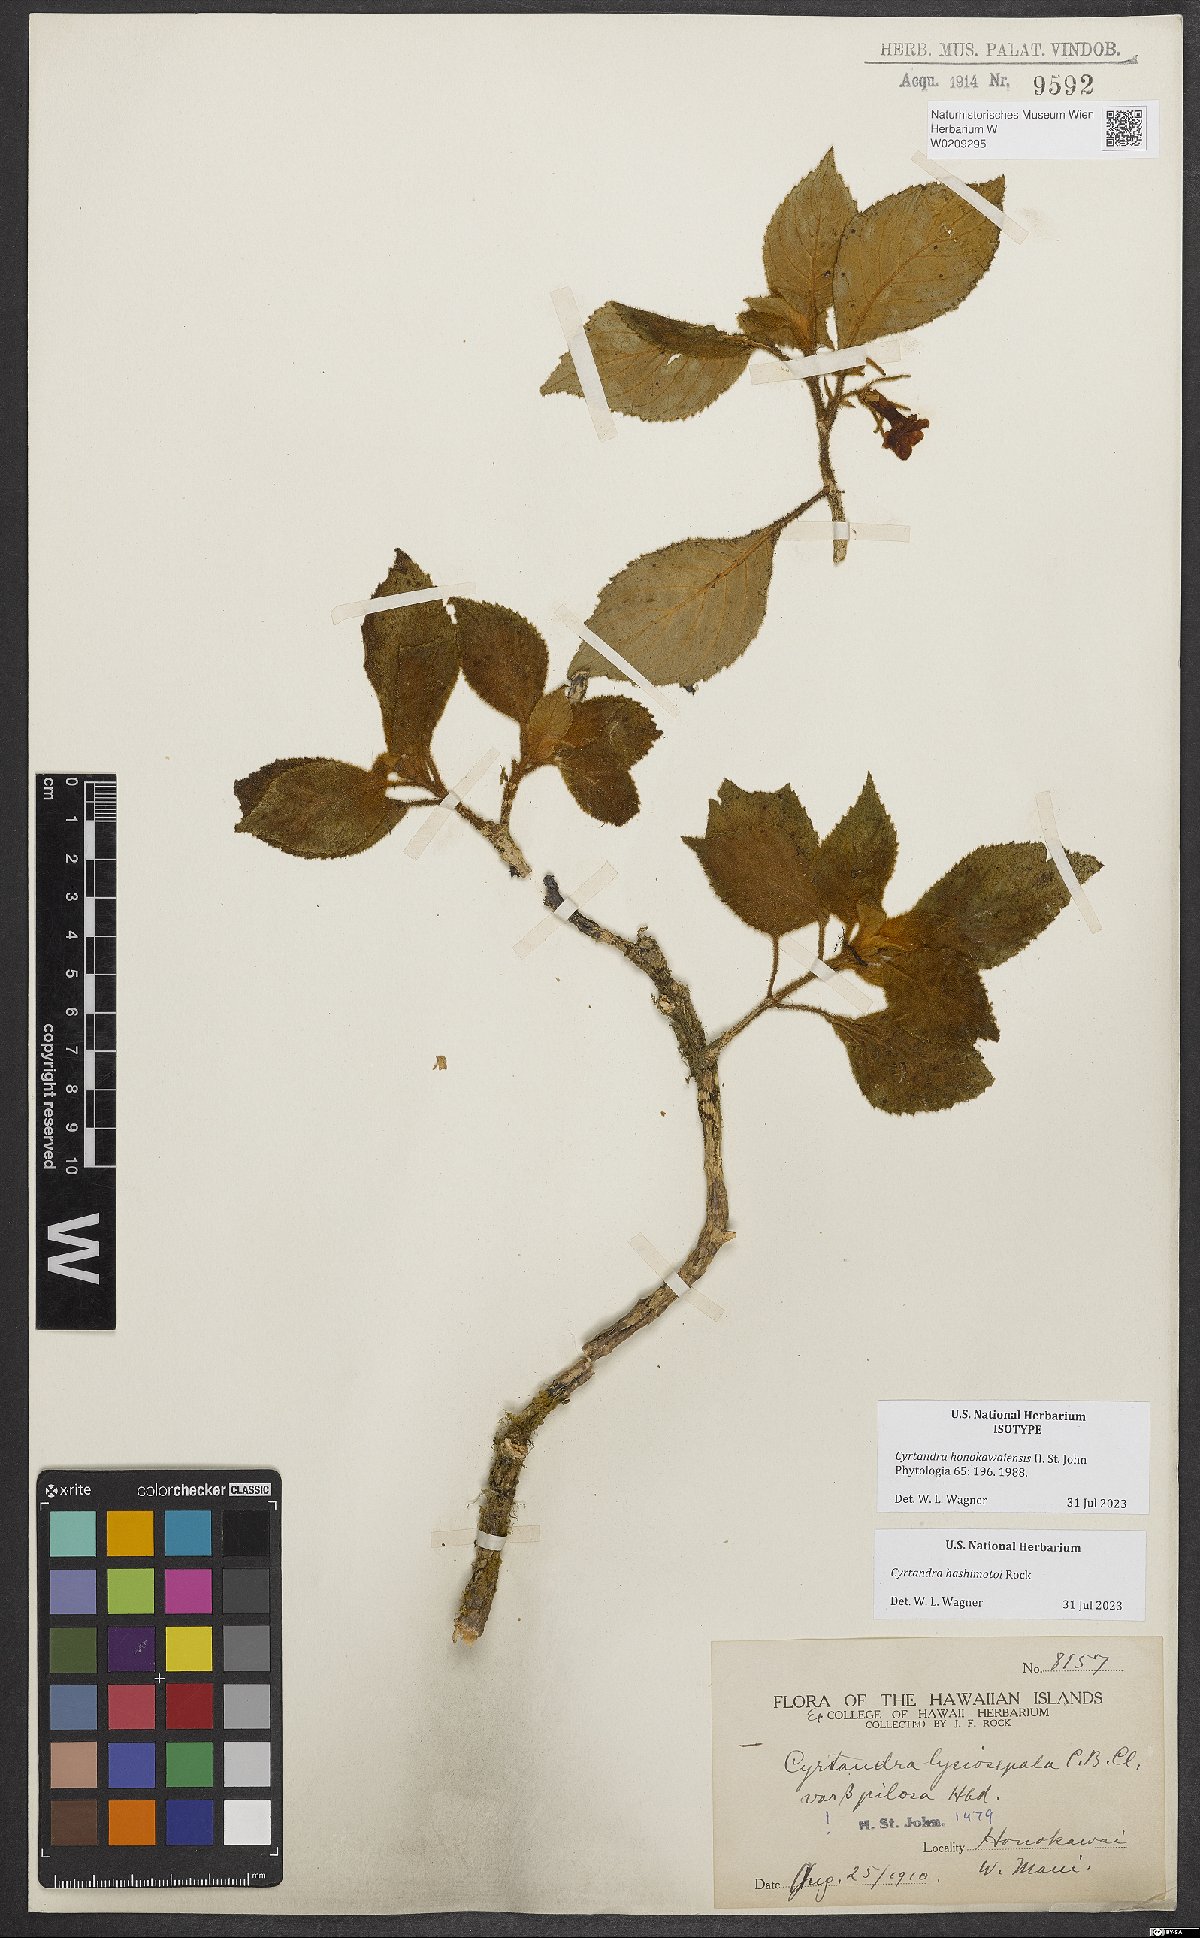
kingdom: Plantae
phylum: Tracheophyta
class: Magnoliopsida
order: Lamiales
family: Gesneriaceae
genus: Cyrtandra
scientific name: Cyrtandra honokawaiensis
